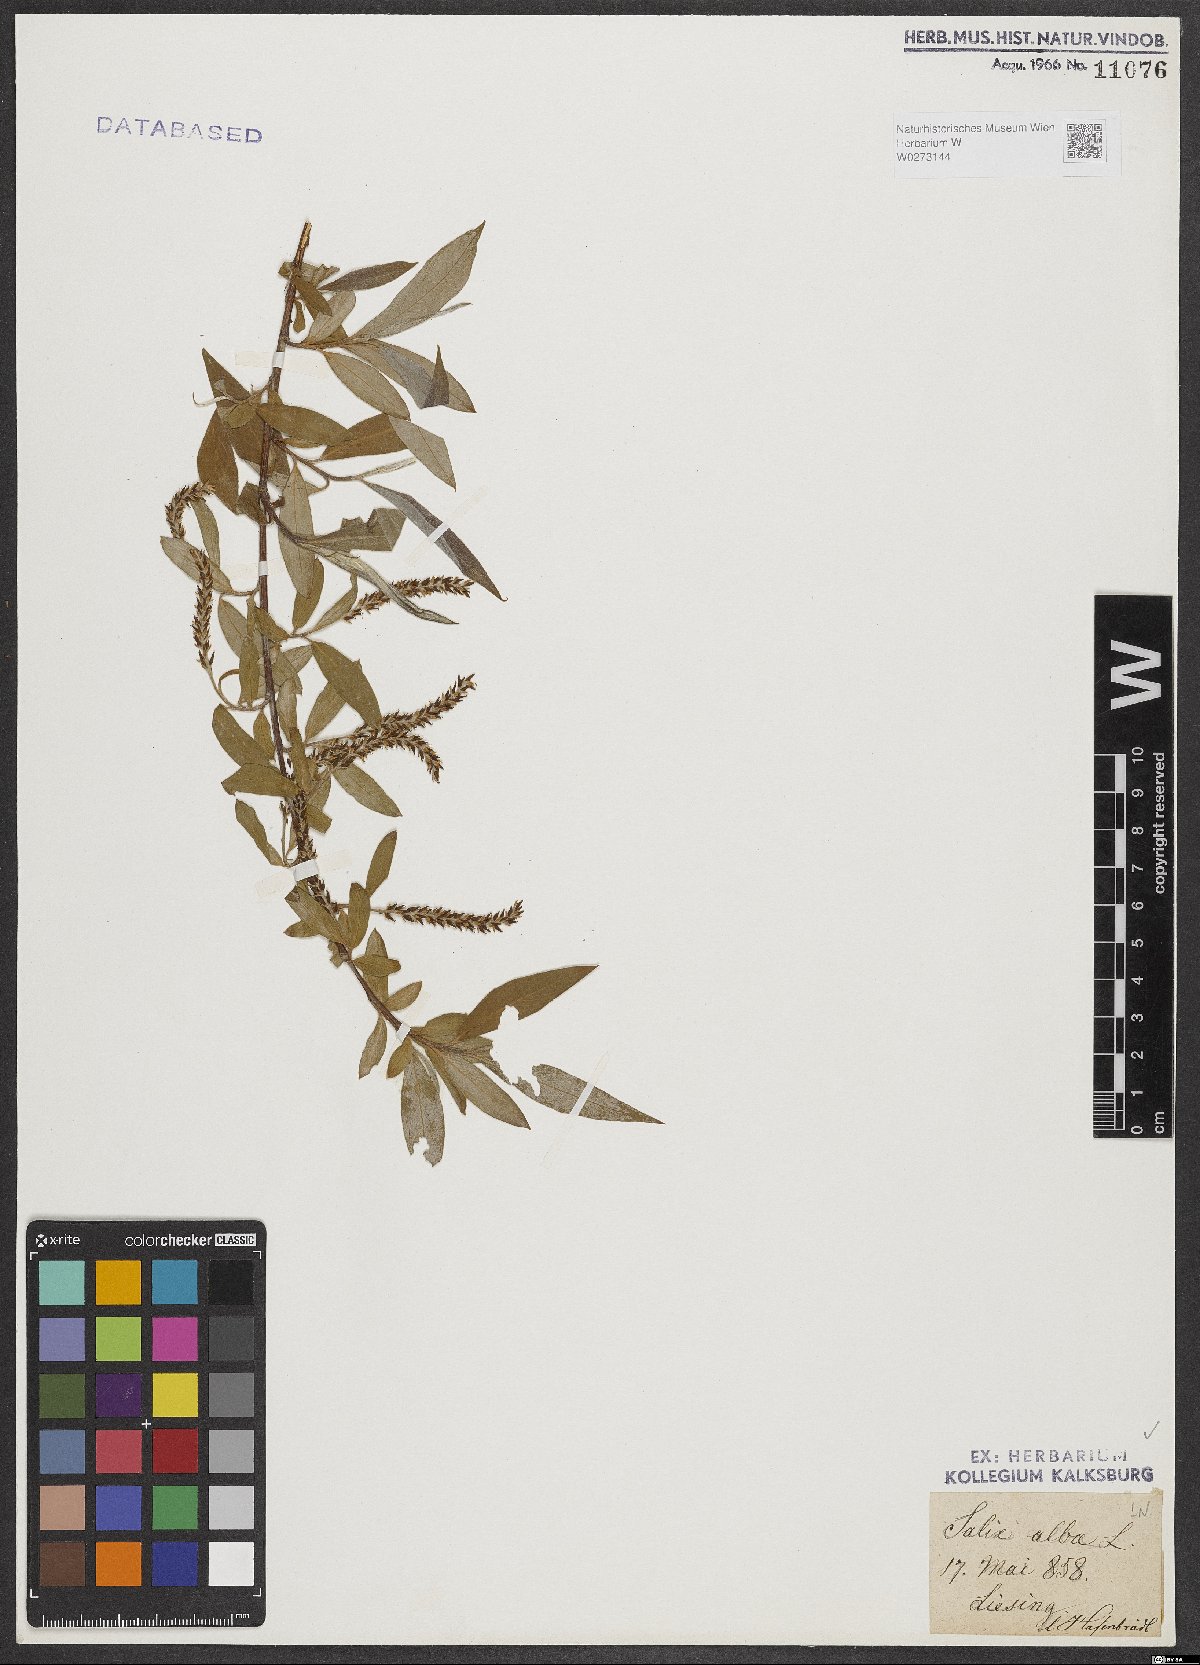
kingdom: Plantae
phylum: Tracheophyta
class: Magnoliopsida
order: Malpighiales
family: Salicaceae
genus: Salix
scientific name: Salix alba
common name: White willow
